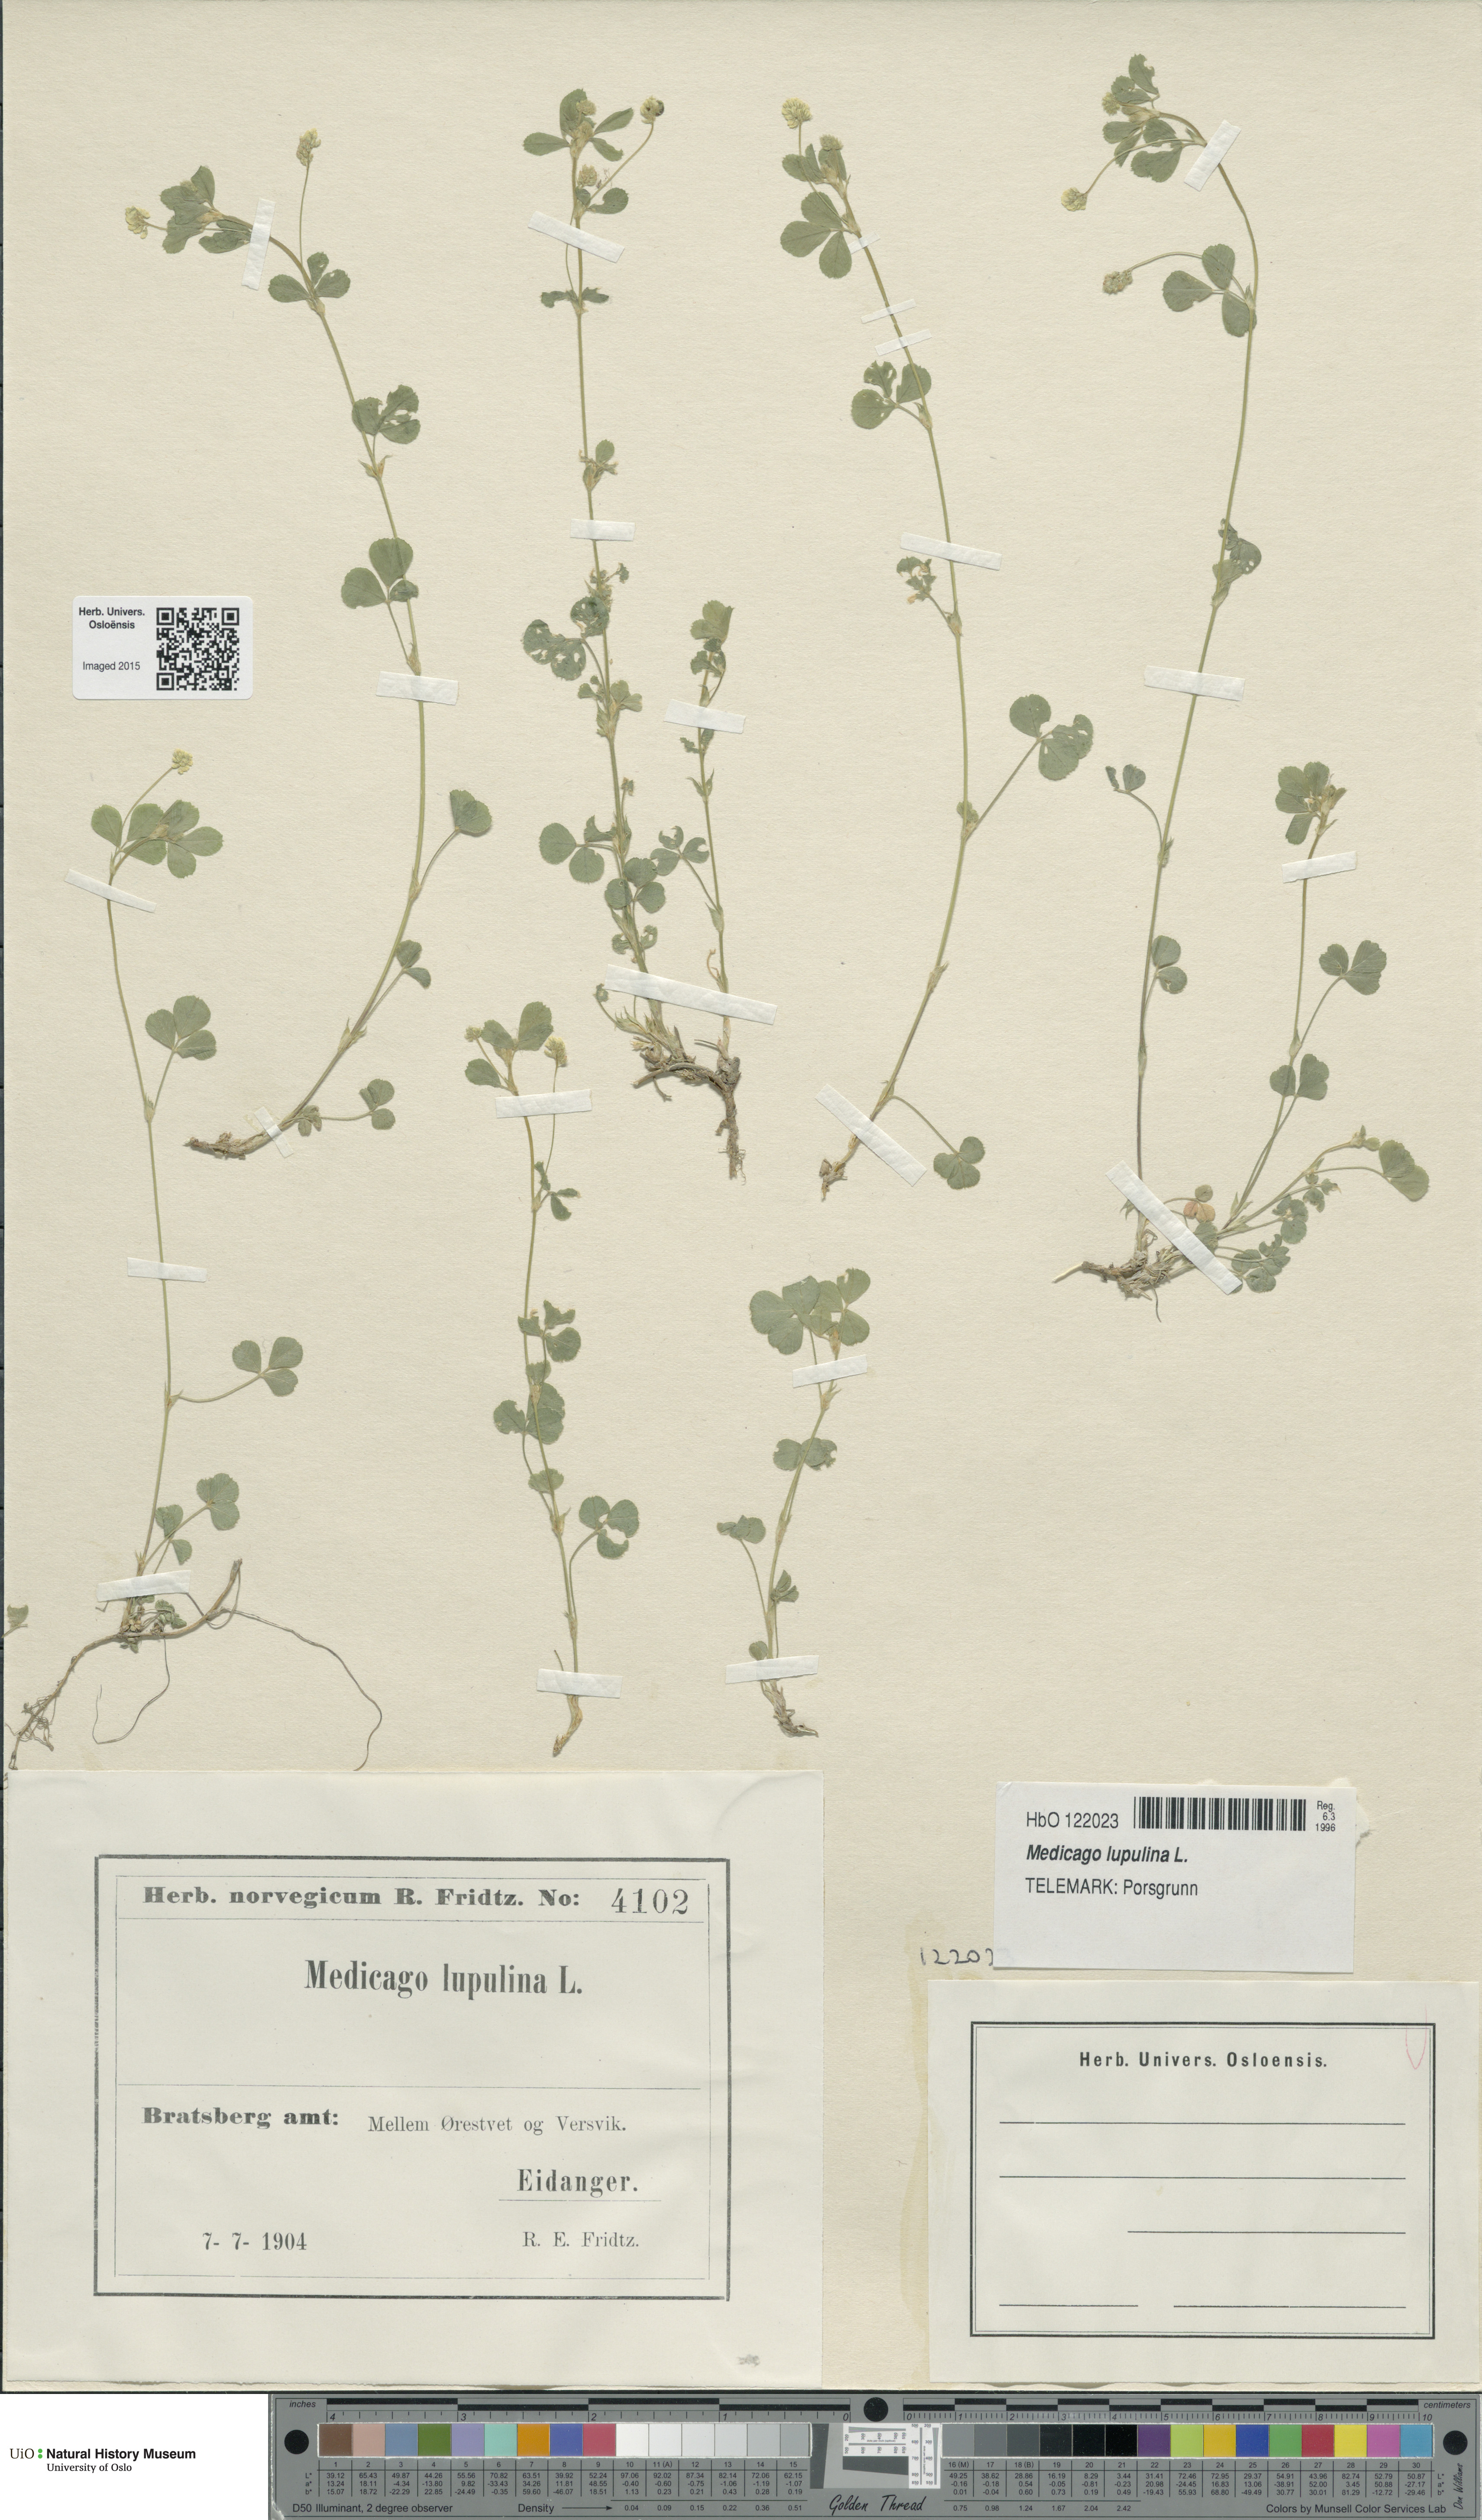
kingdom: Plantae
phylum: Tracheophyta
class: Magnoliopsida
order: Fabales
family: Fabaceae
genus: Medicago
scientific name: Medicago lupulina
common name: Black medick
